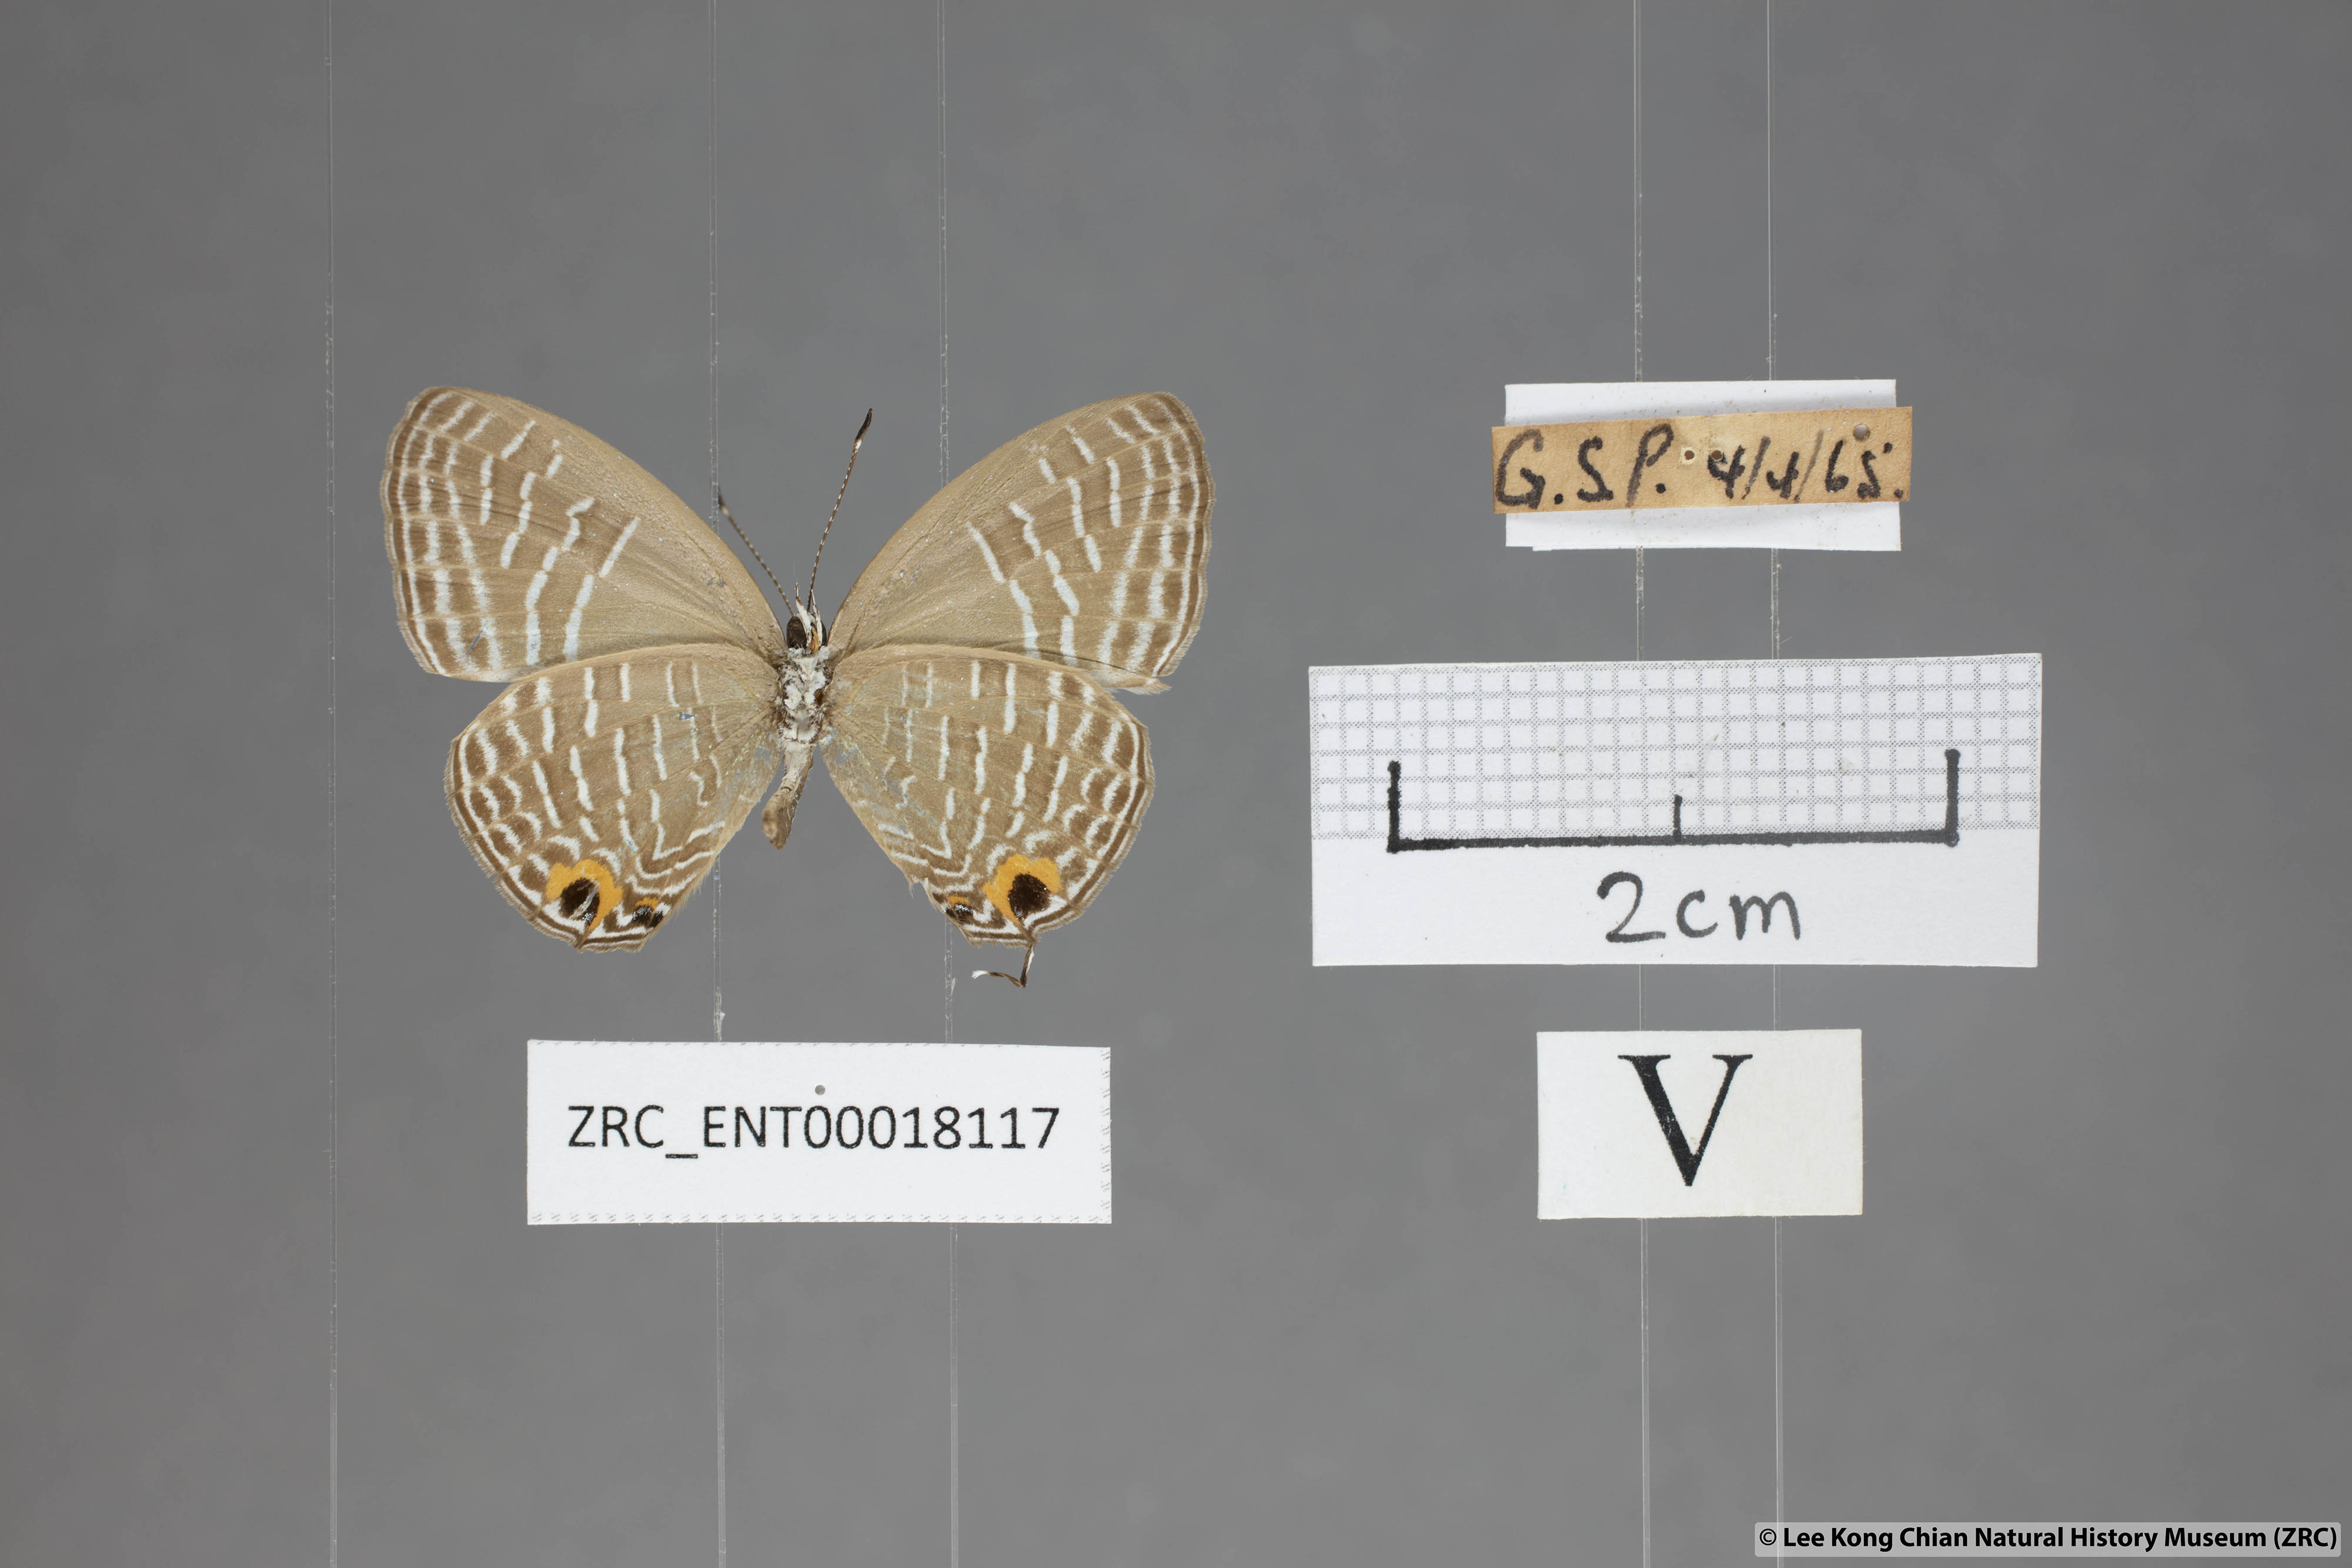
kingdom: Animalia
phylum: Arthropoda
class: Insecta
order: Lepidoptera
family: Lycaenidae
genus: Jamides
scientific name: Jamides elpis
